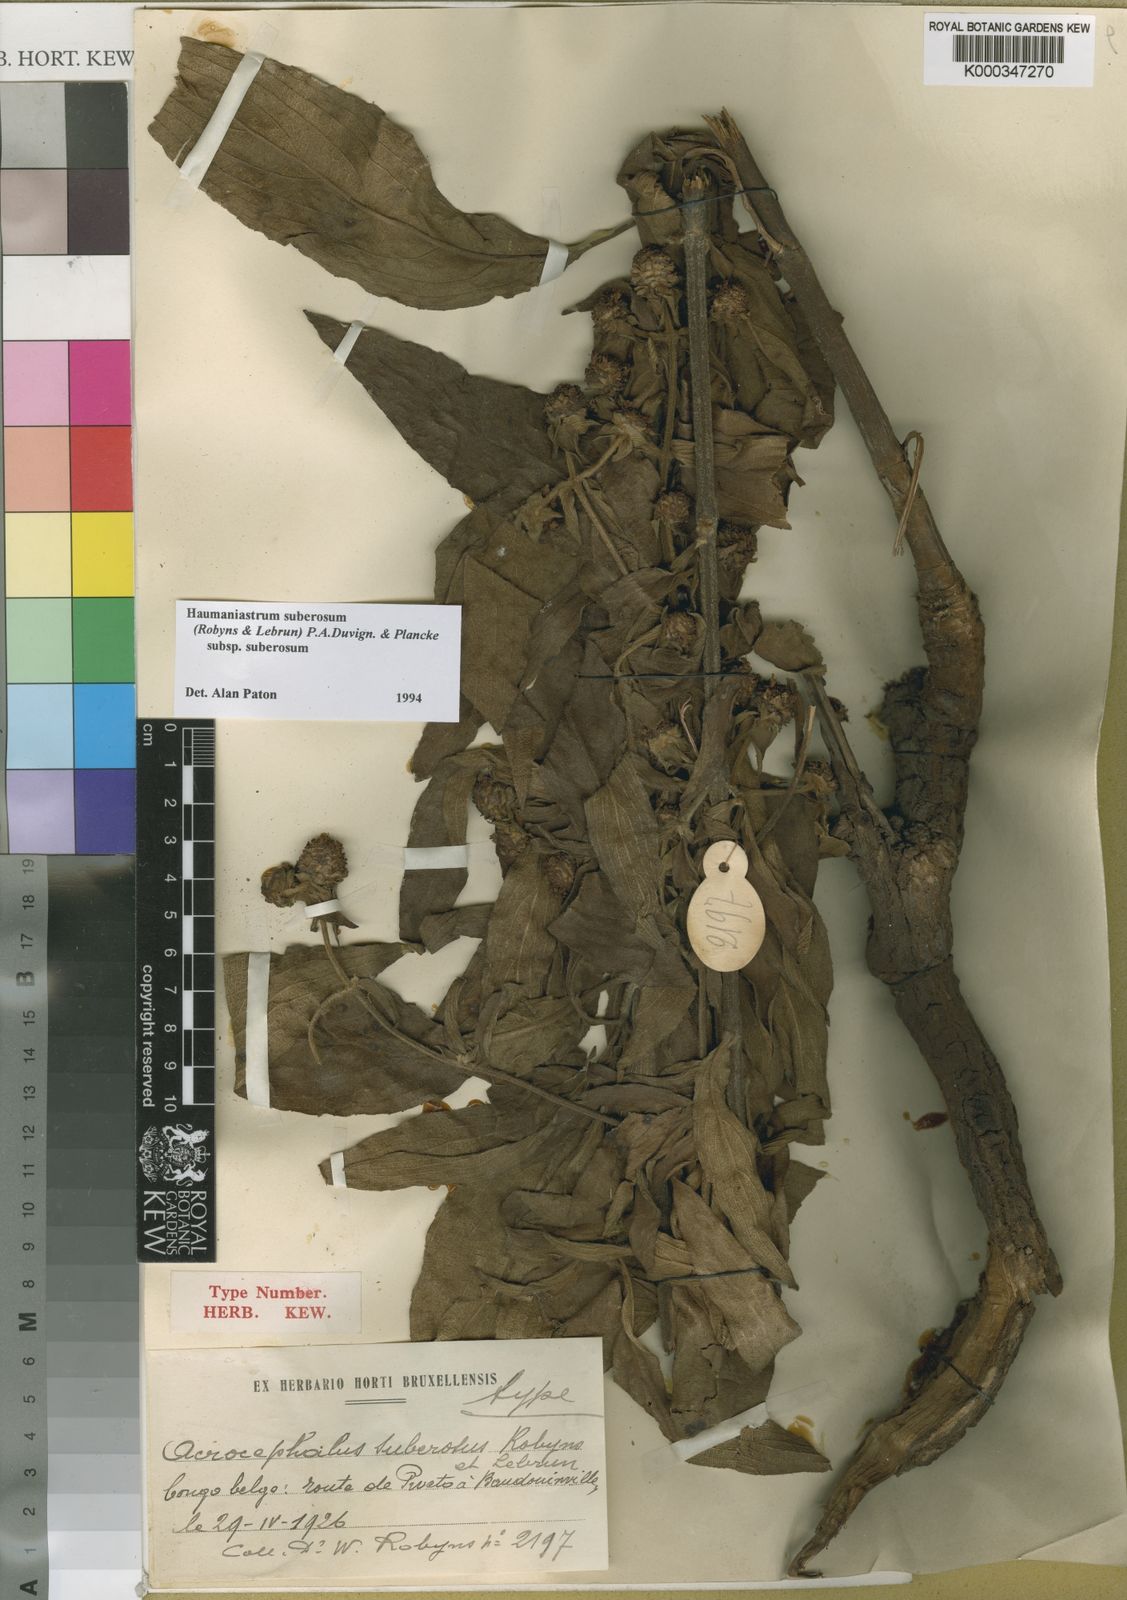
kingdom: Plantae
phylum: Tracheophyta
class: Magnoliopsida
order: Lamiales
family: Lamiaceae
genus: Haumaniastrum
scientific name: Haumaniastrum suberosum
